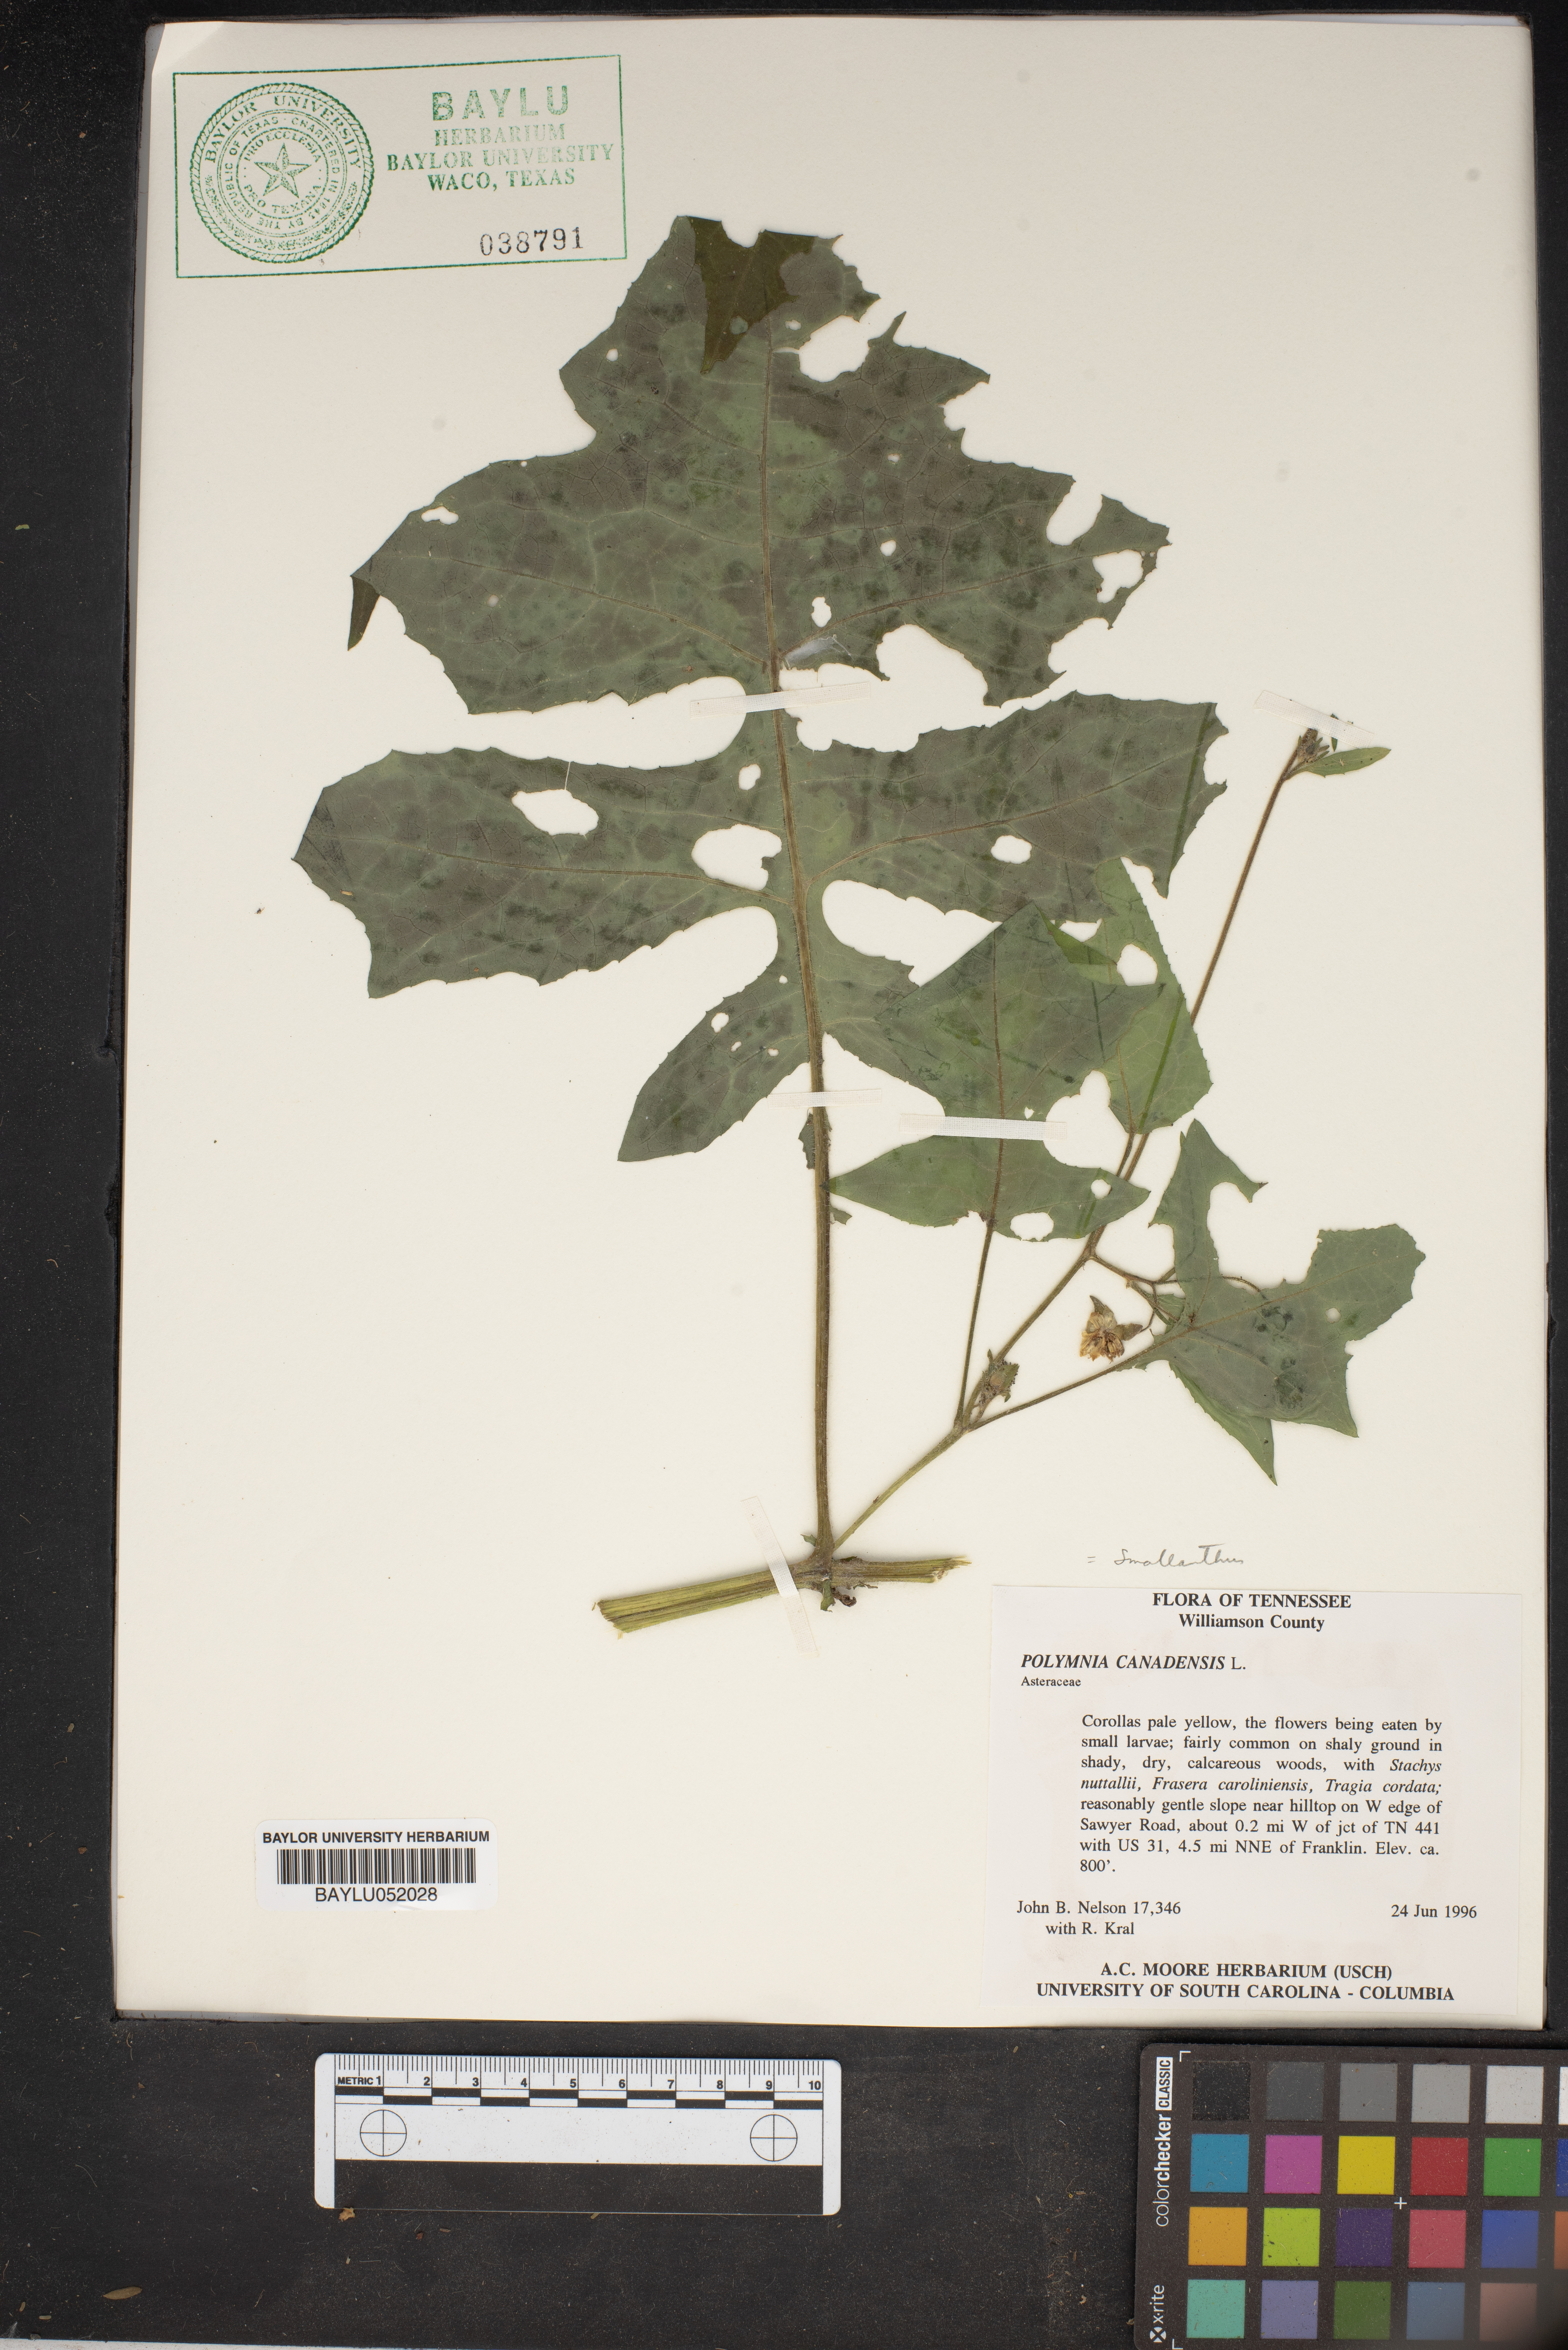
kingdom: Plantae
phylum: Tracheophyta
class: Magnoliopsida
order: Asterales
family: Asteraceae
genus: Polymnia
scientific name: Polymnia canadensis
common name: Pale-flowered leafcup
